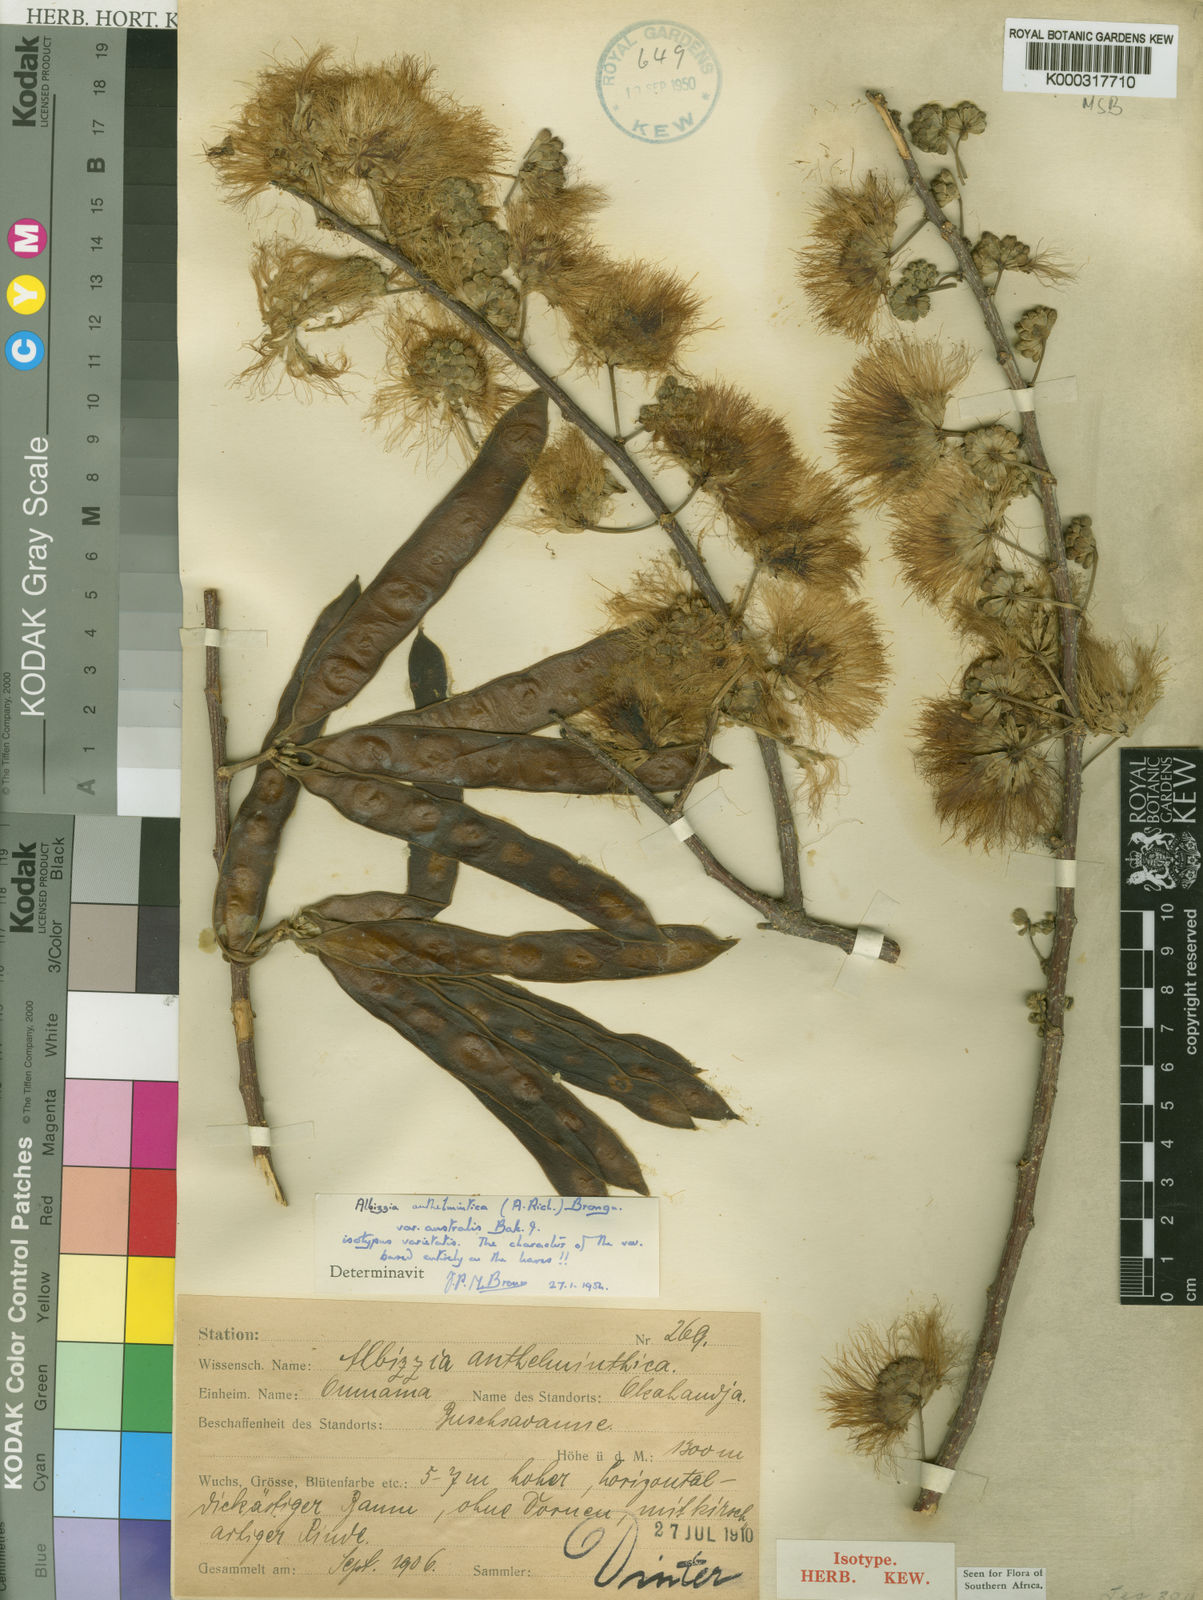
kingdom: Plantae
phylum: Tracheophyta
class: Magnoliopsida
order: Fabales
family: Fabaceae
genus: Albizia
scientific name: Albizia anthelmintica
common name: Worm-bark false-thorn
